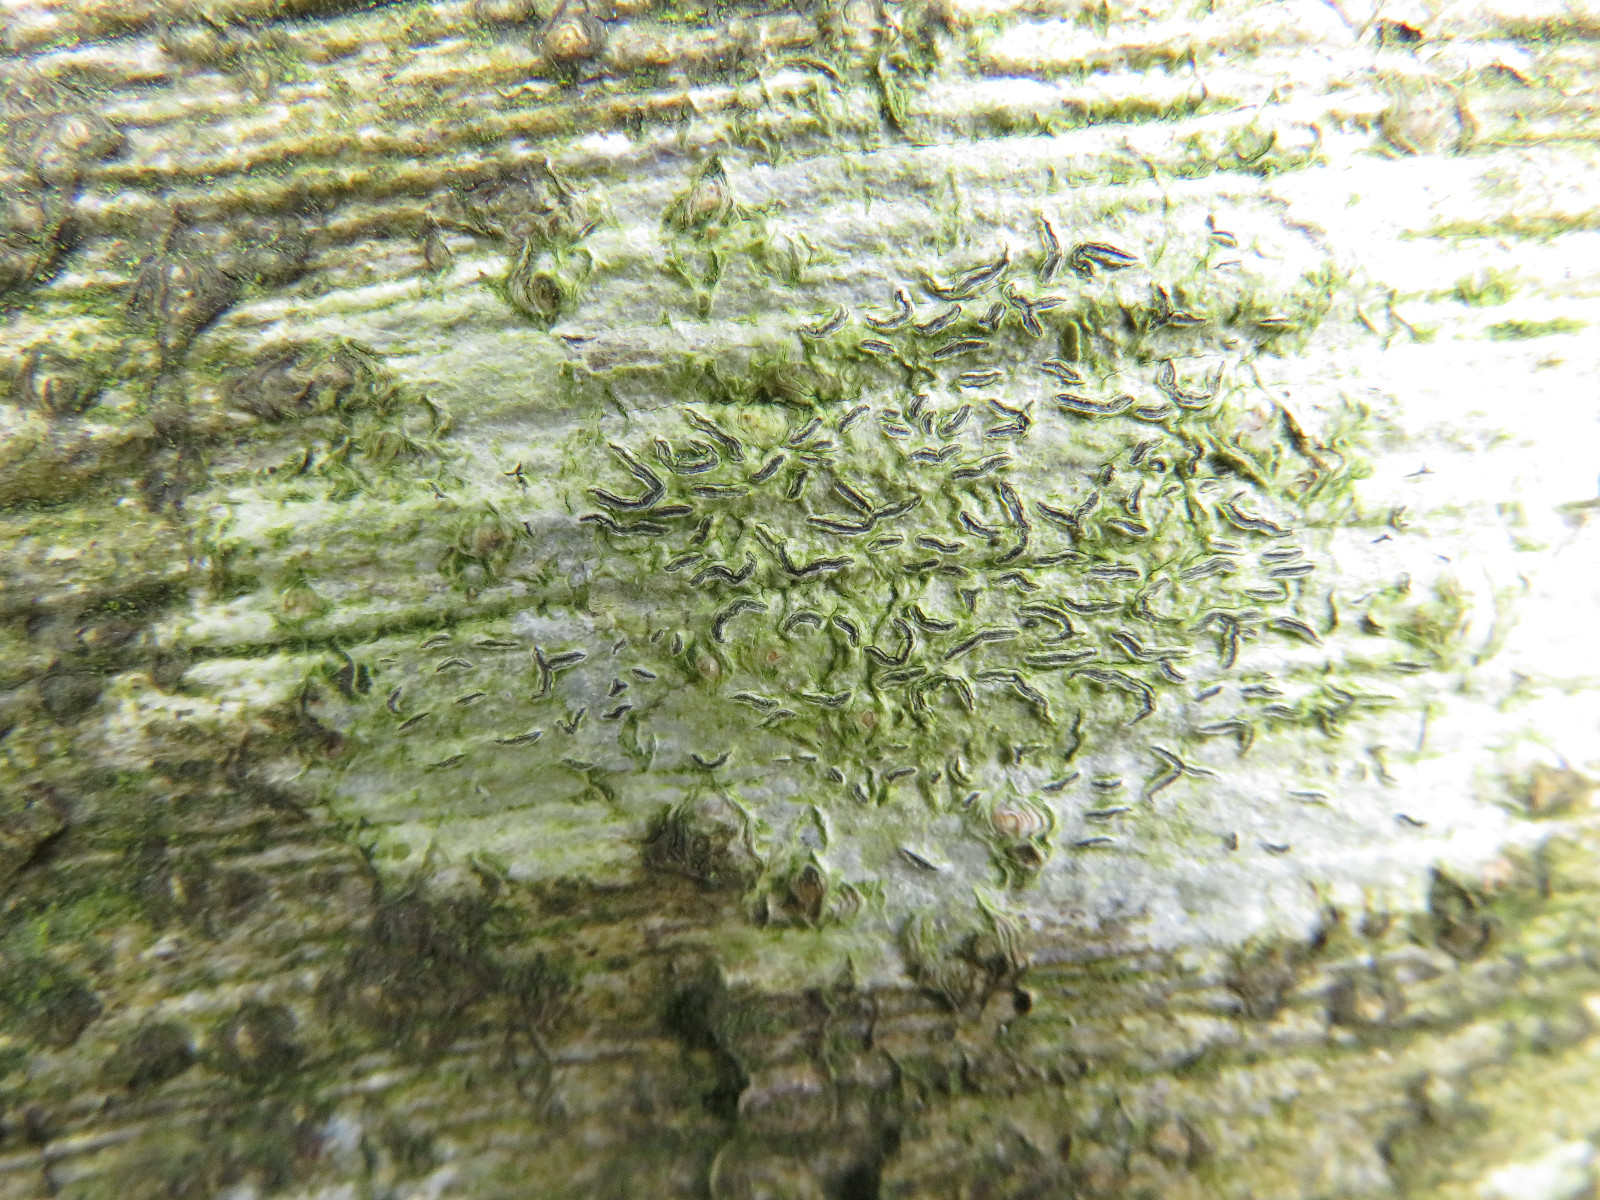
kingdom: Fungi
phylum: Ascomycota
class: Lecanoromycetes
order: Ostropales
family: Graphidaceae
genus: Graphis
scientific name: Graphis scripta
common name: almindelig skriftlav
